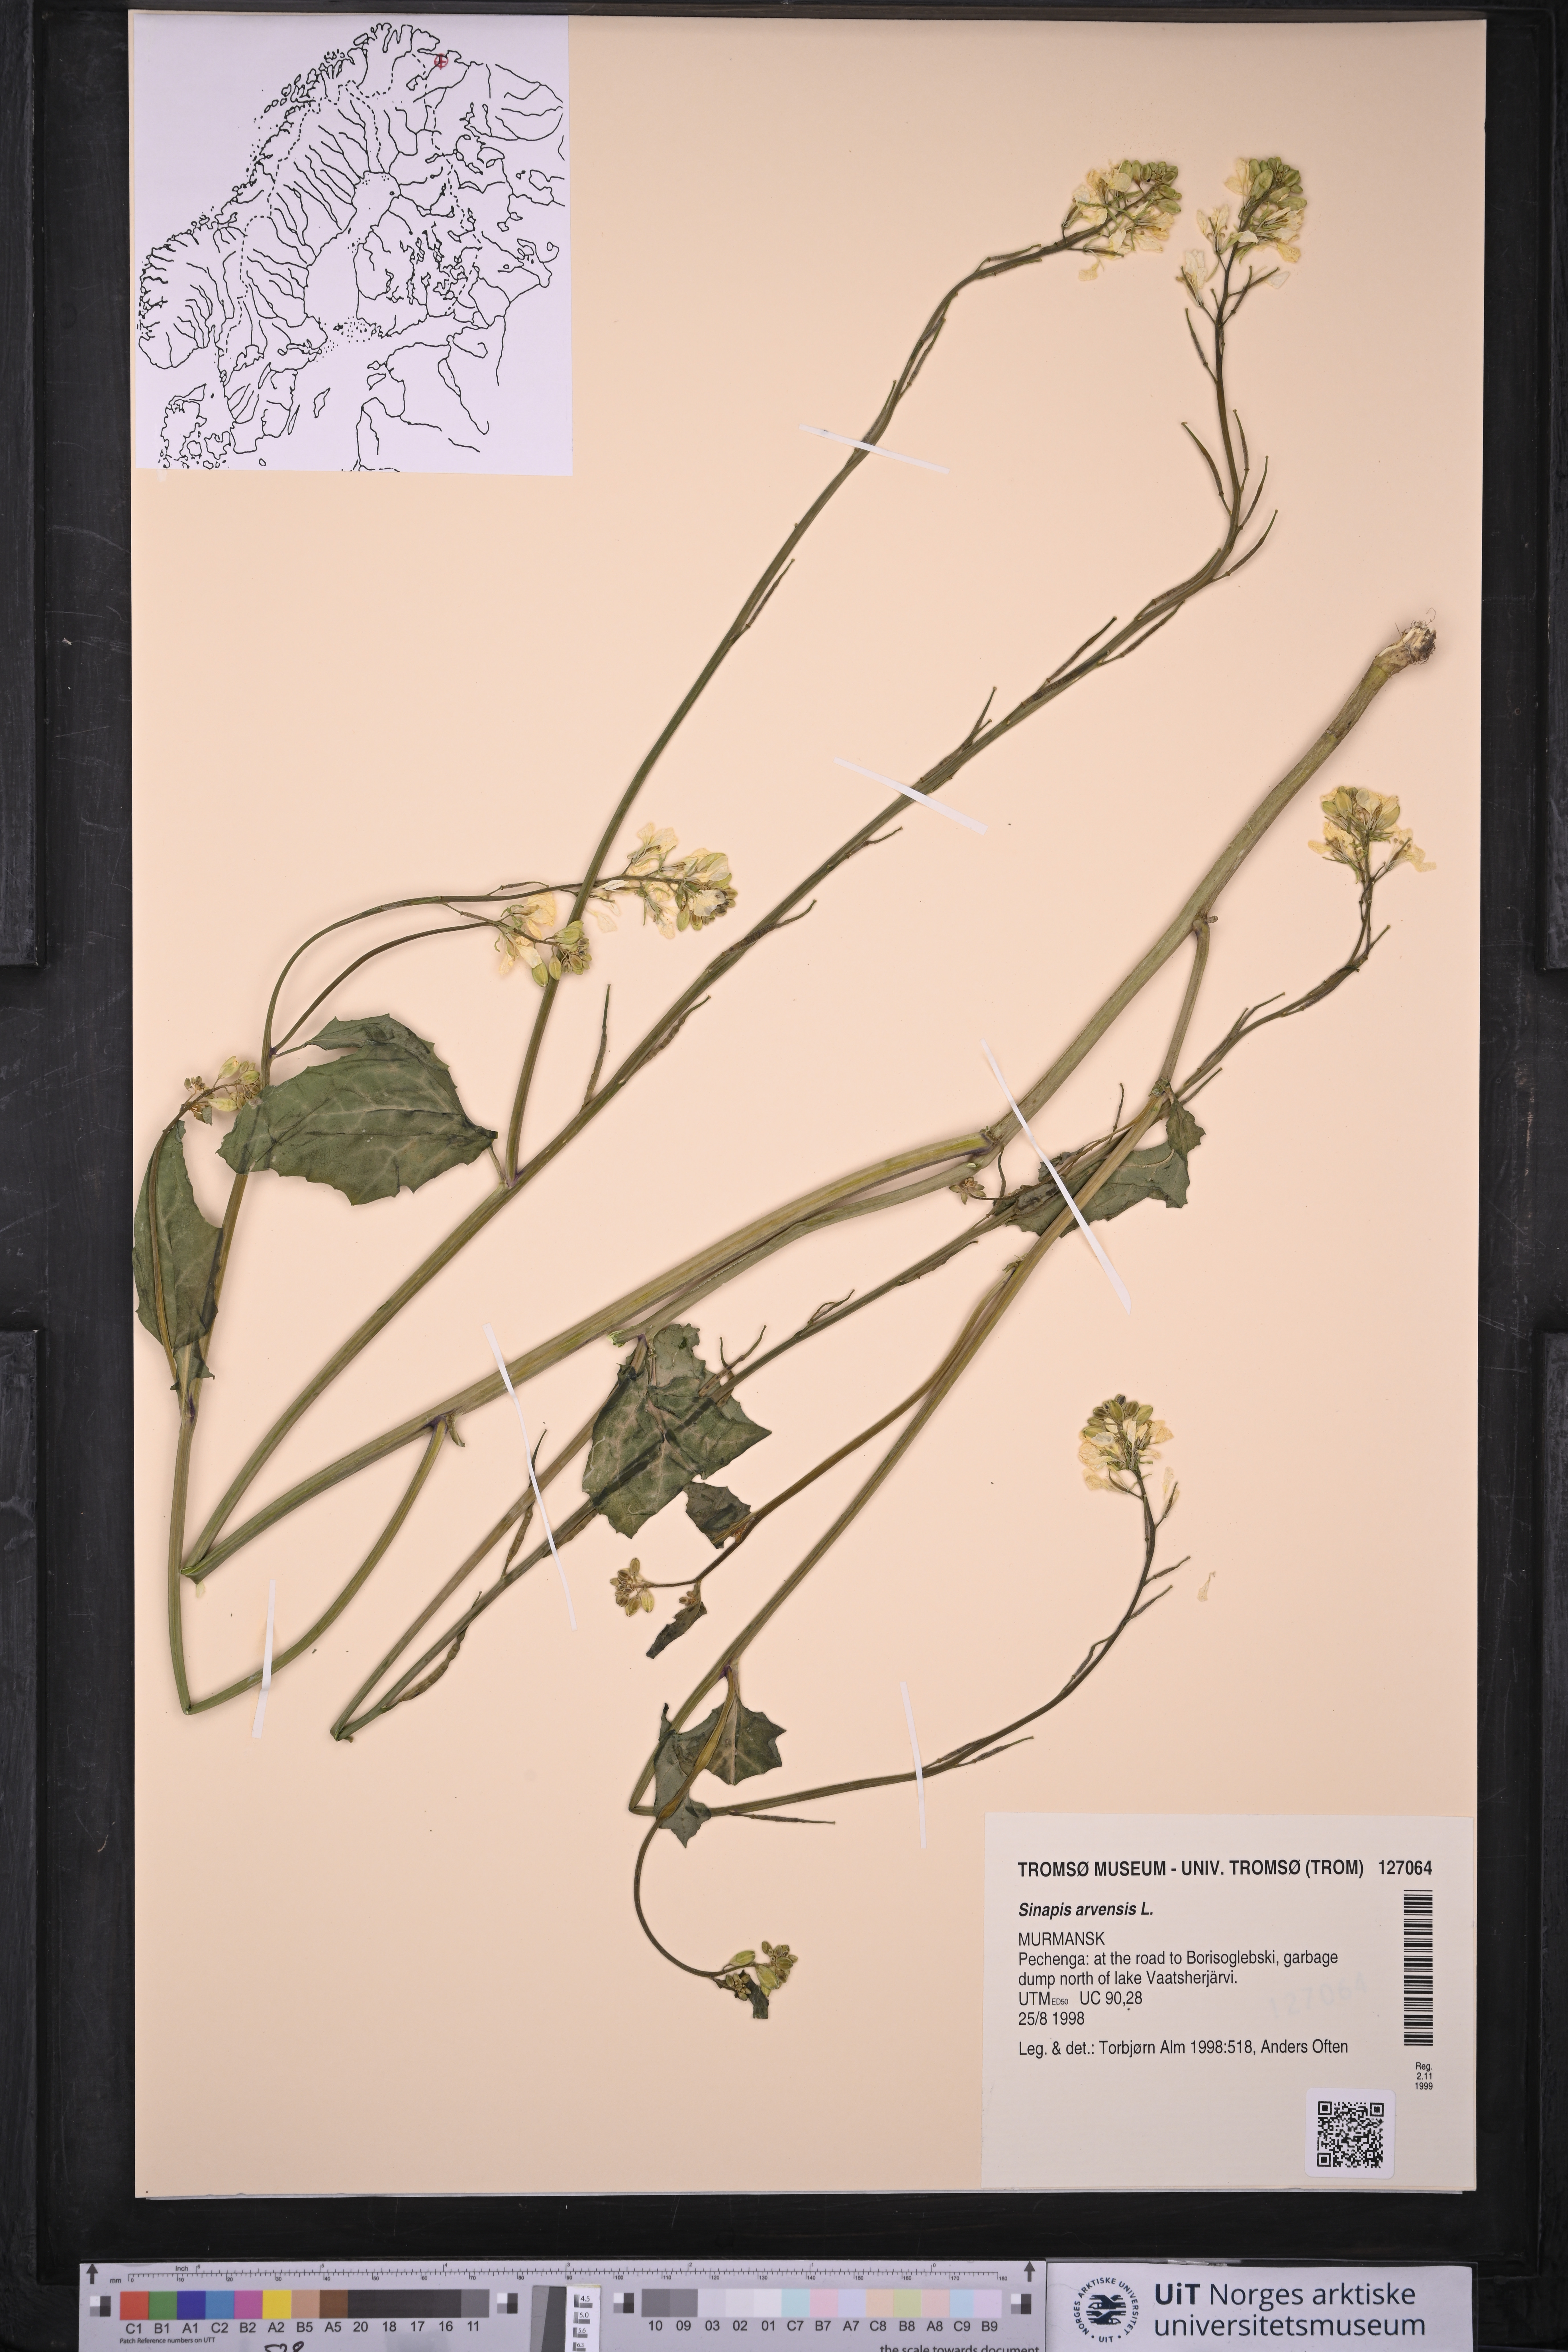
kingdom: Plantae
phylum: Tracheophyta
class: Magnoliopsida
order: Brassicales
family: Brassicaceae
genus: Sinapis
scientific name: Sinapis arvensis
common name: Charlock
